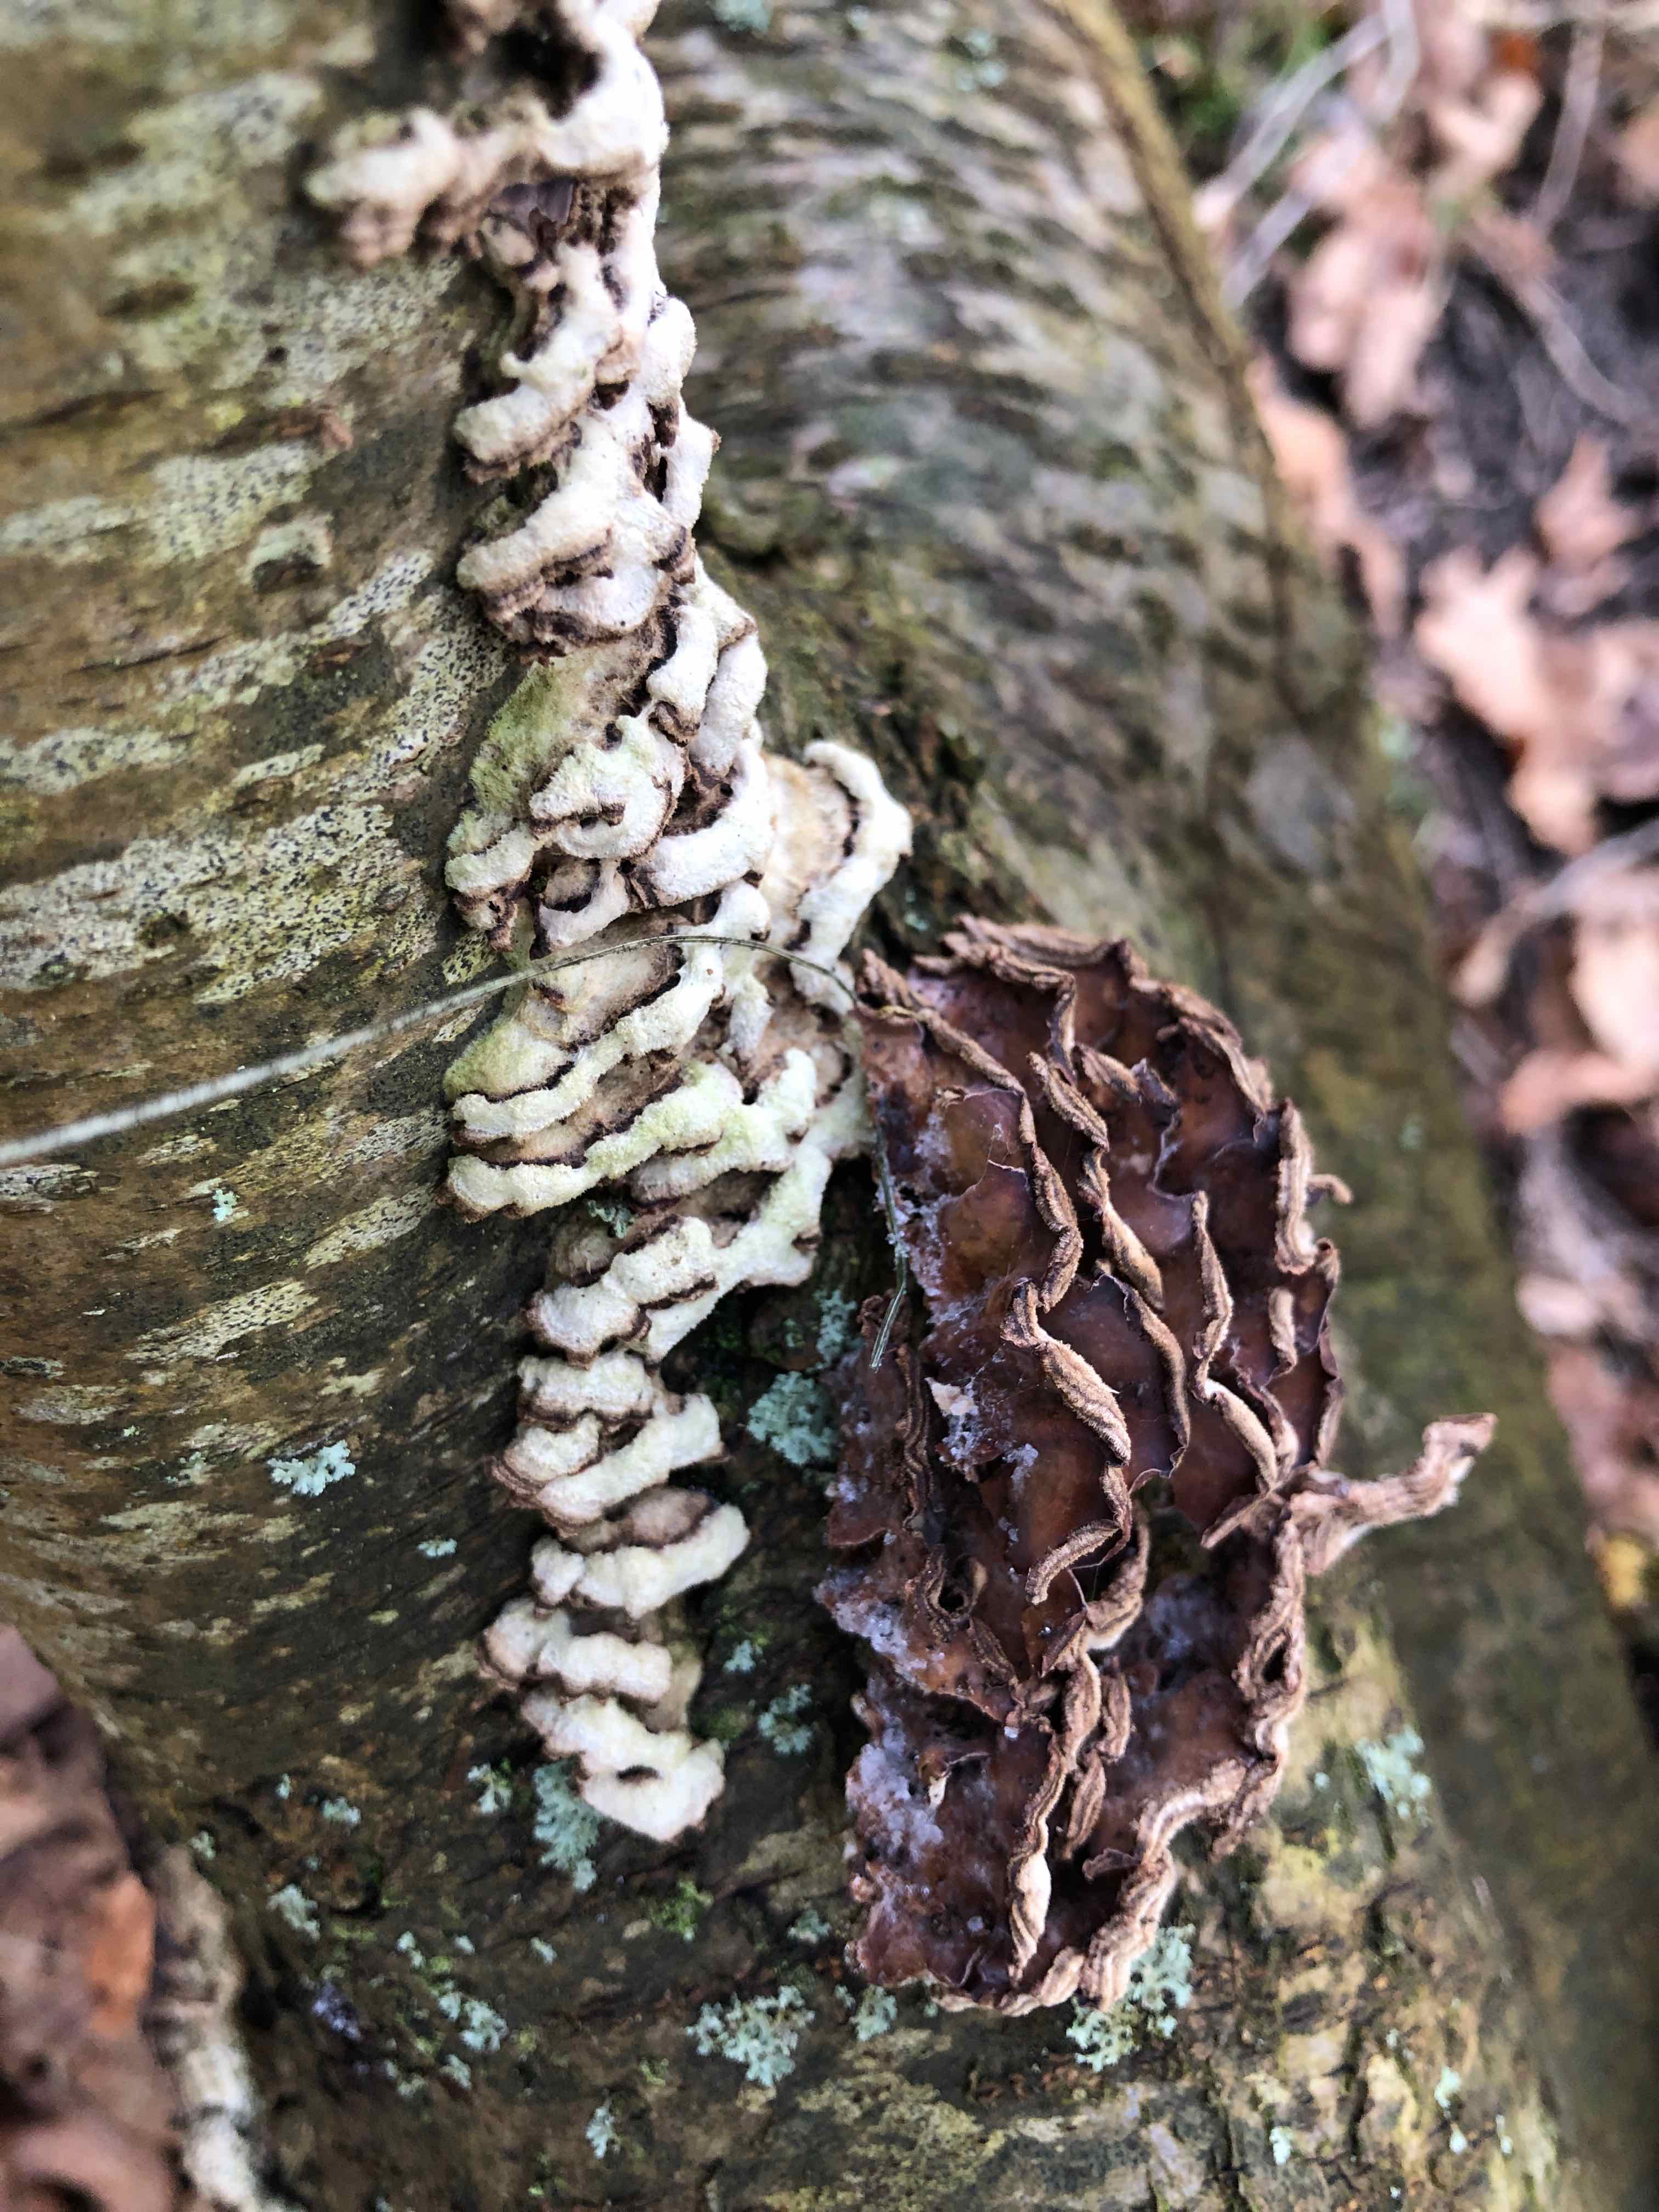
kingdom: Fungi
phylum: Basidiomycota
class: Agaricomycetes
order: Agaricales
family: Cyphellaceae
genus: Chondrostereum
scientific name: Chondrostereum purpureum
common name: purpurlædersvamp
